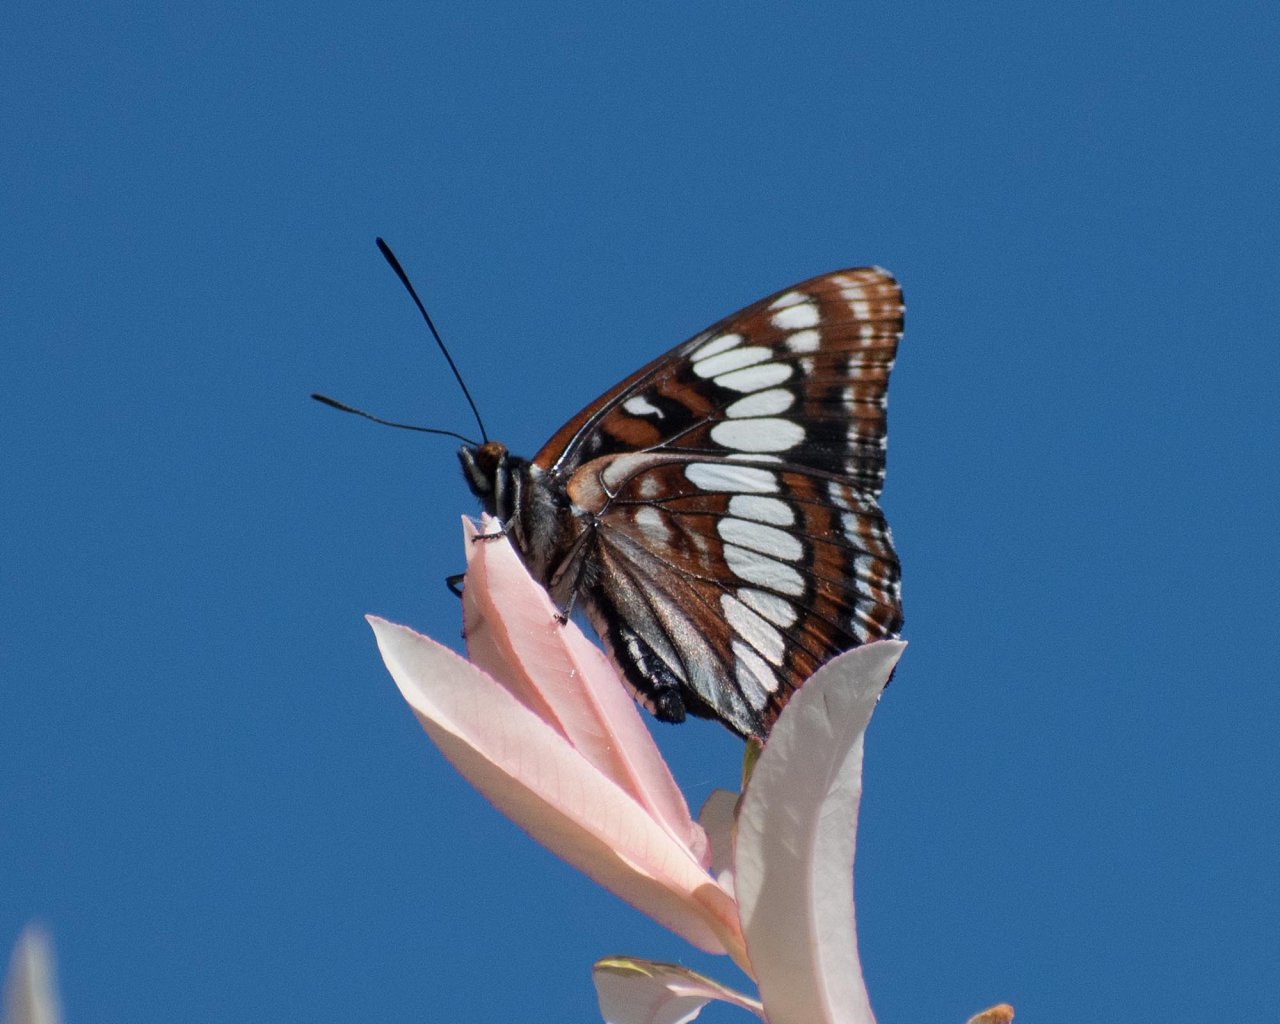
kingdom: Animalia
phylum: Arthropoda
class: Insecta
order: Lepidoptera
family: Nymphalidae
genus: Limenitis
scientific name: Limenitis lorquini
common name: Lorquin's Admiral
